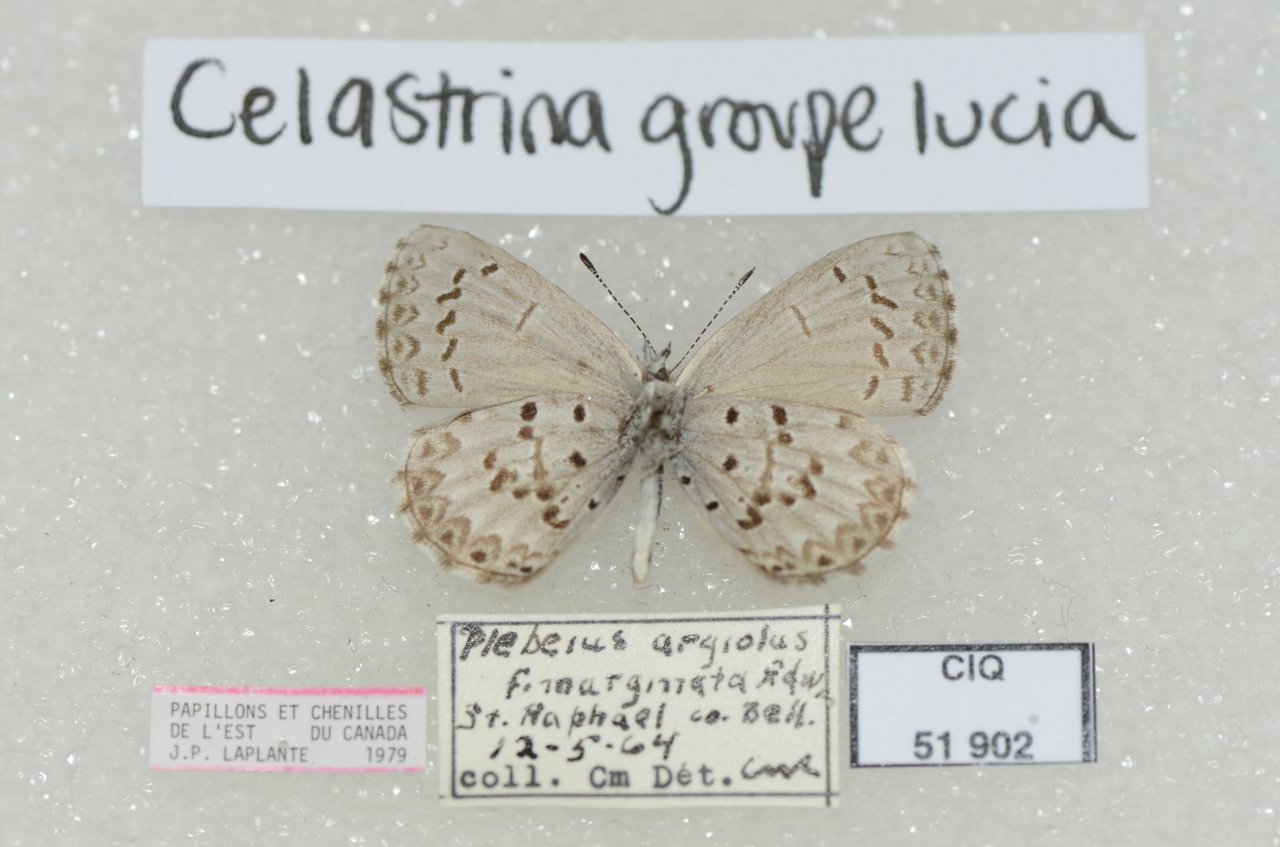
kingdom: Animalia
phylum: Arthropoda
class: Insecta
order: Lepidoptera
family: Lycaenidae
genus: Celastrina
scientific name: Celastrina lucia
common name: Northern Spring Azure
